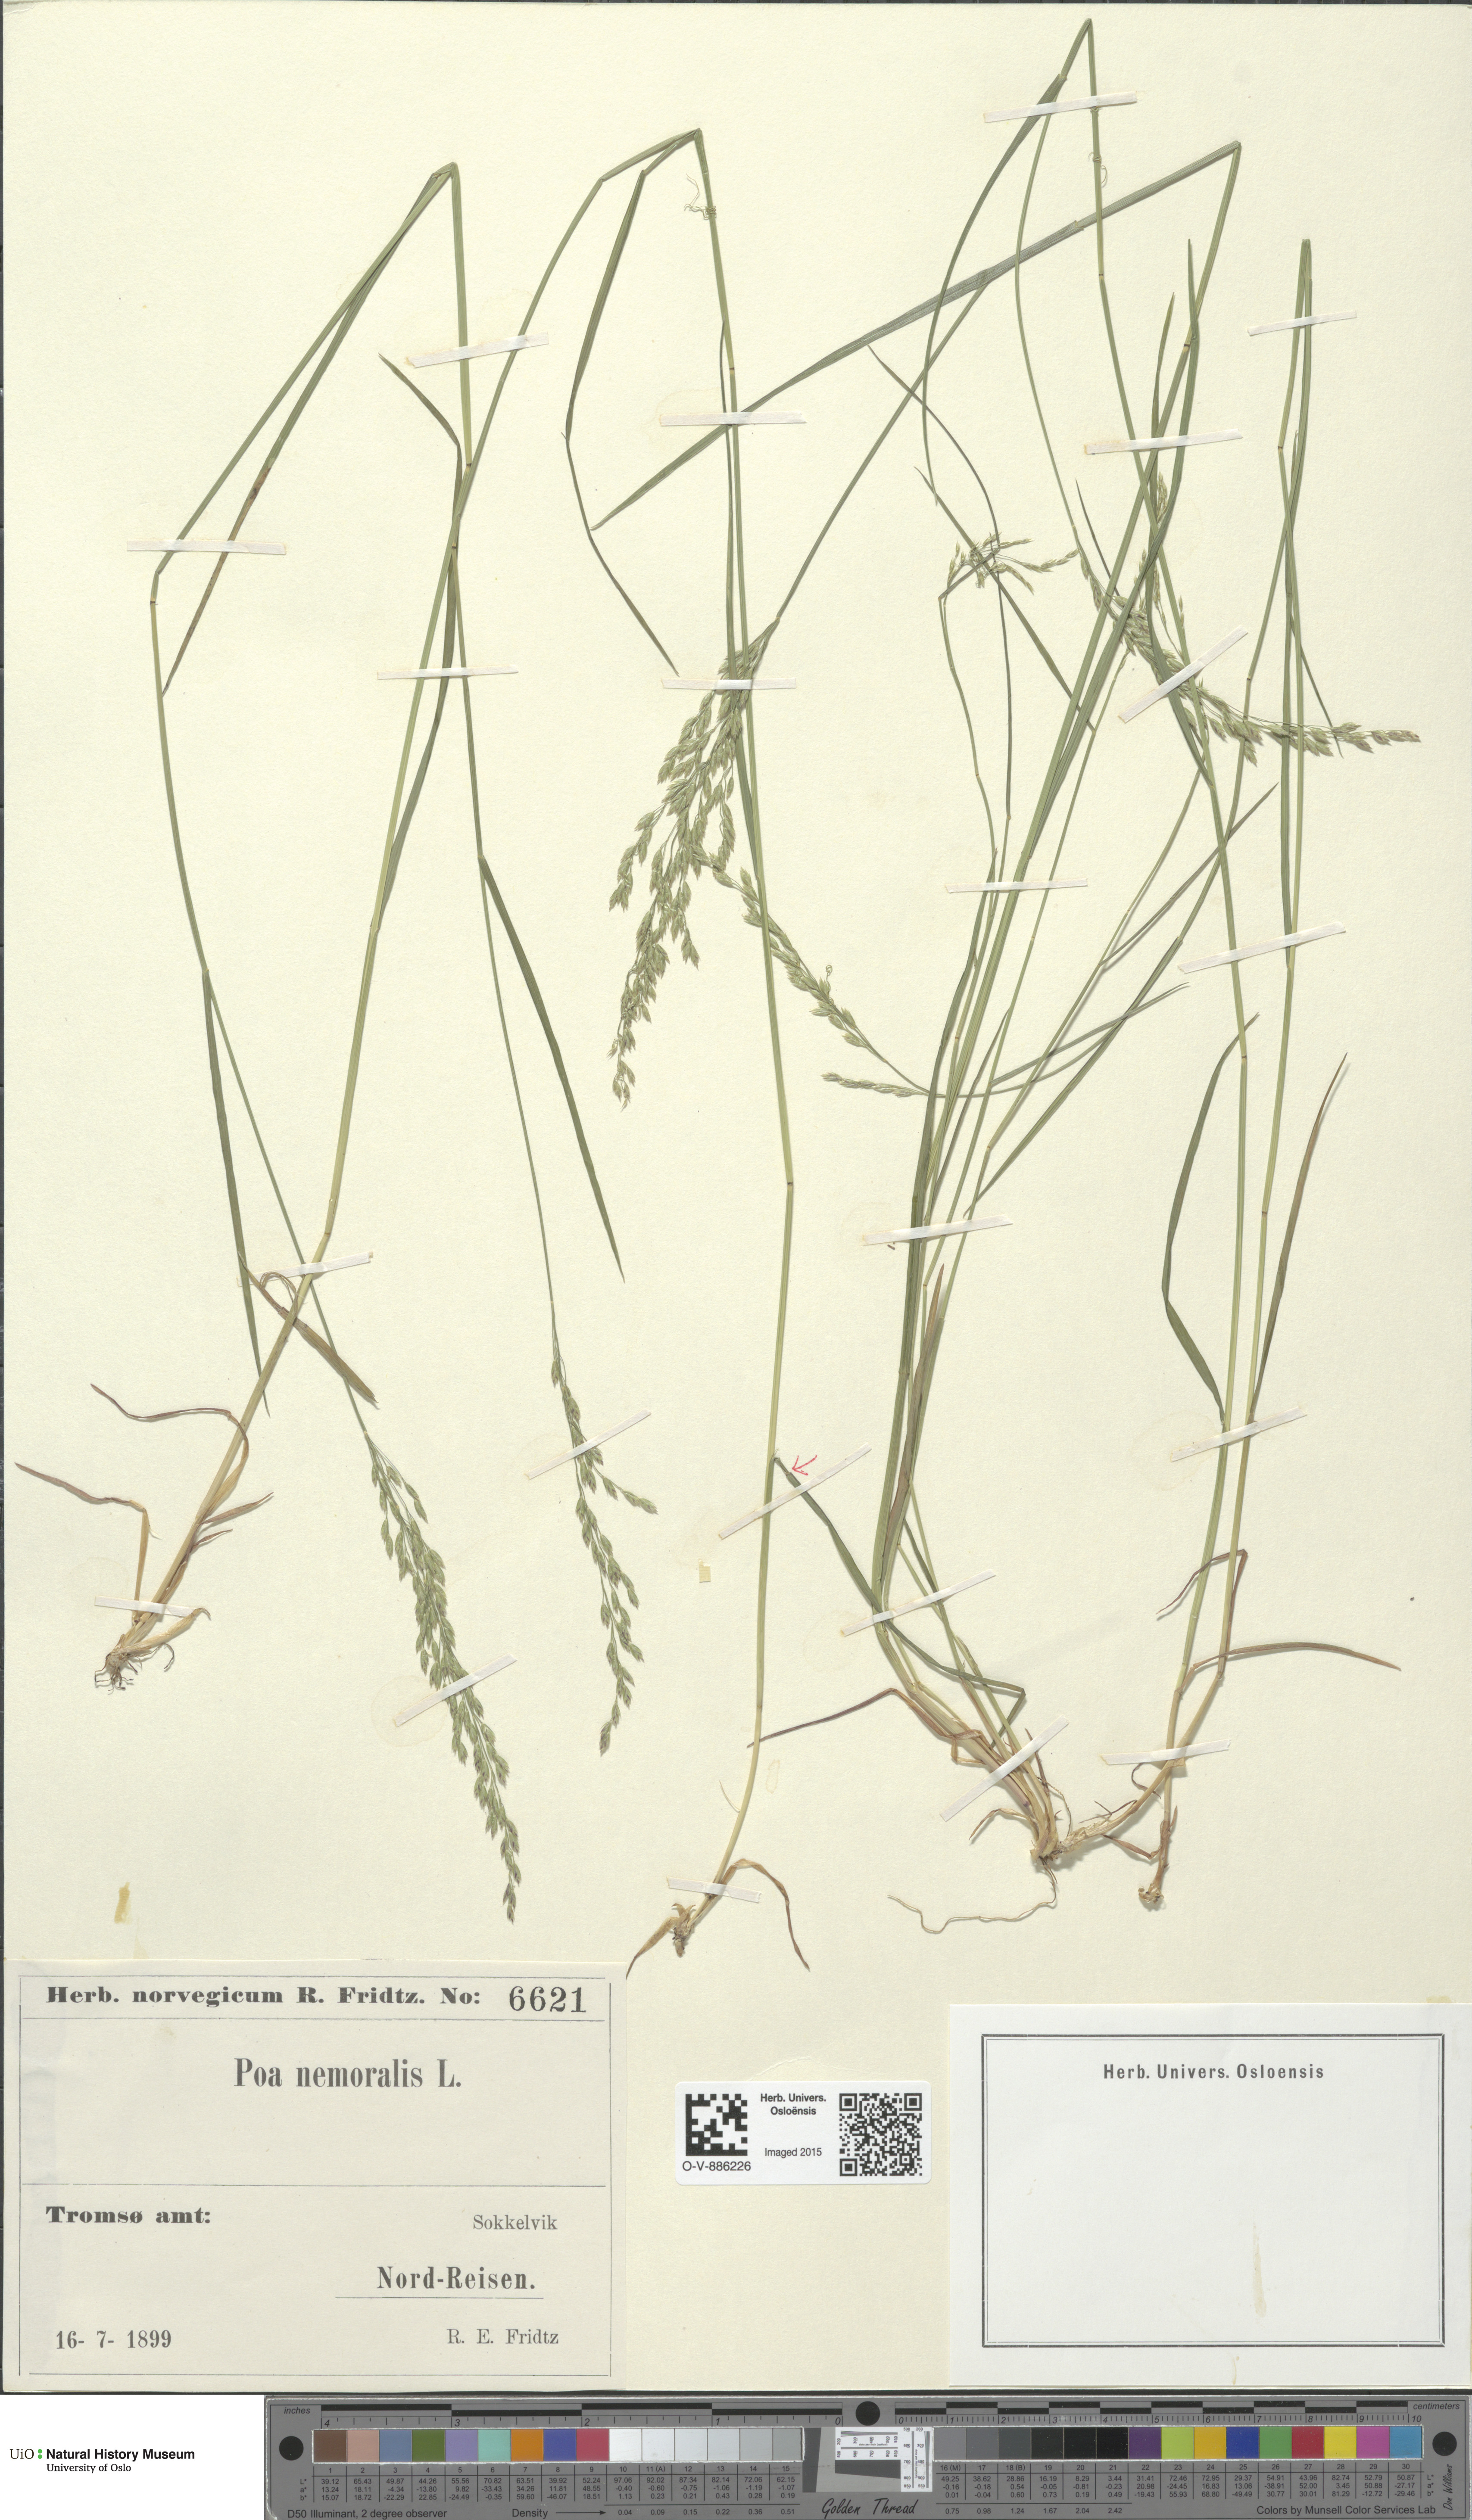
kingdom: Plantae
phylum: Tracheophyta
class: Liliopsida
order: Poales
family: Poaceae
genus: Poa
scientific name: Poa nemoralis
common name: Wood bluegrass
